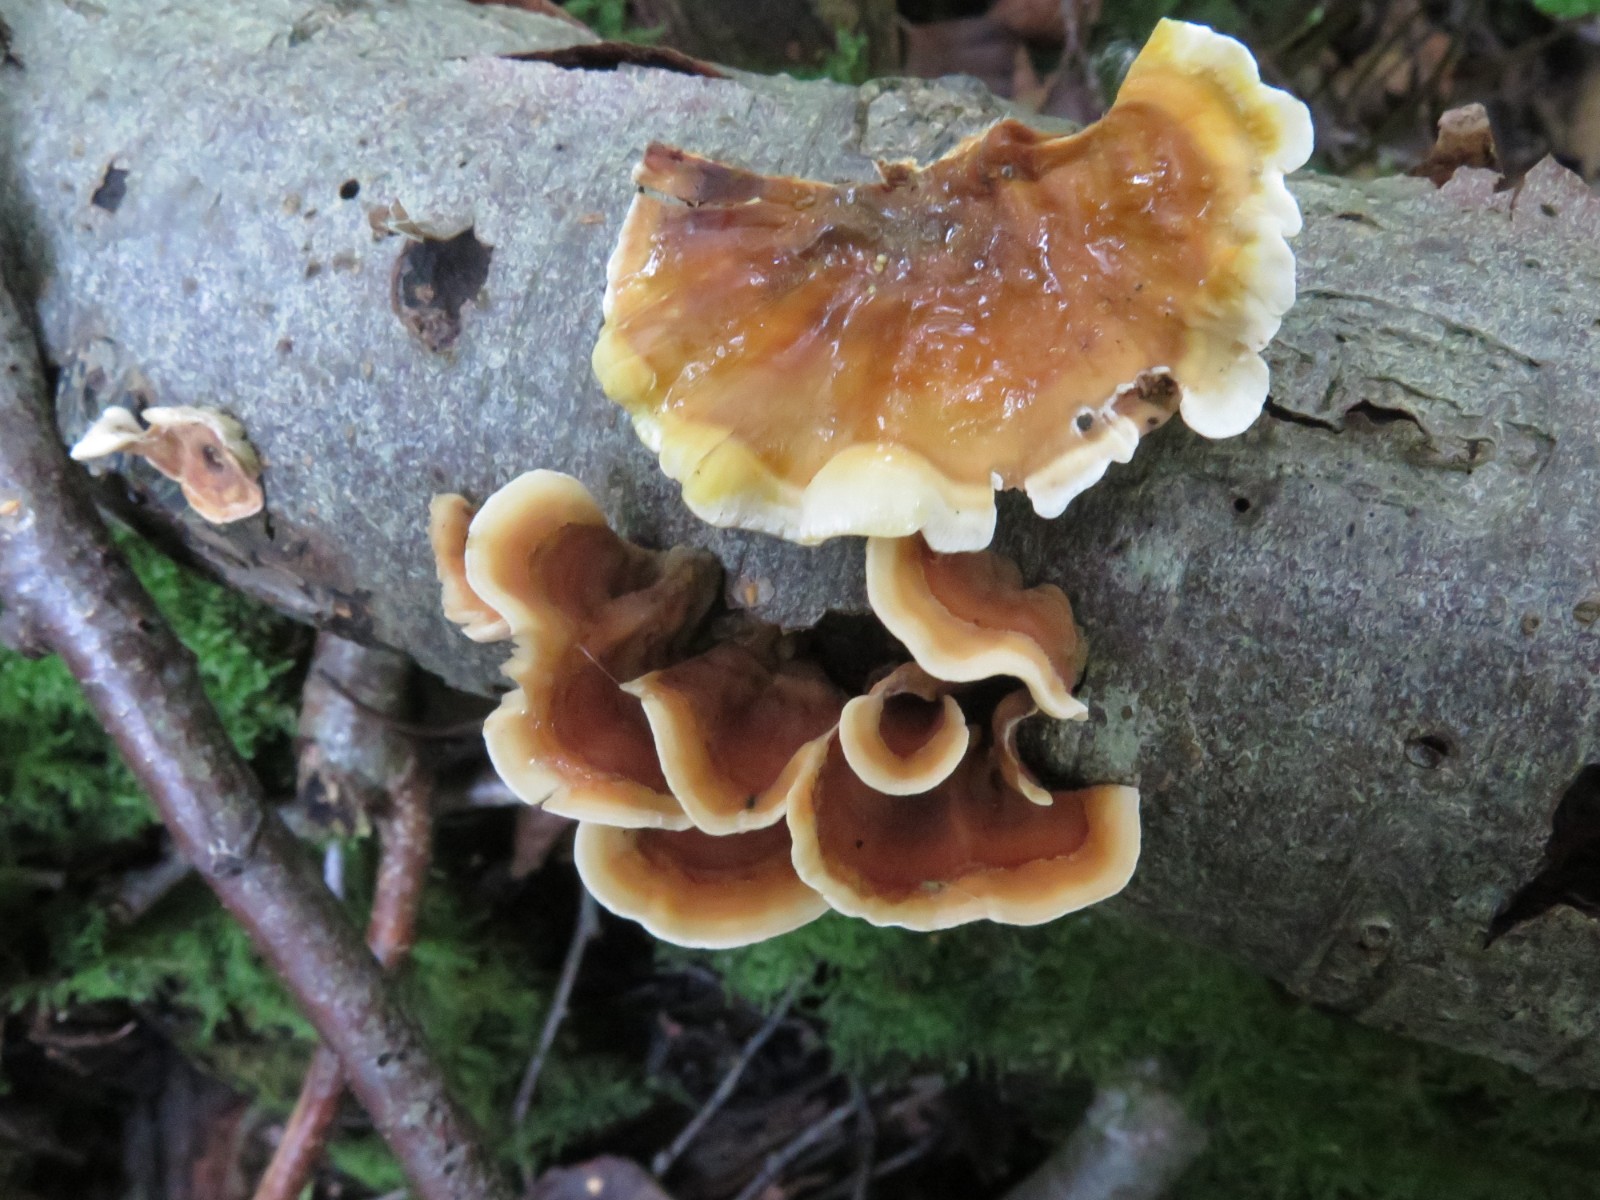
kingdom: Fungi
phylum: Basidiomycota
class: Agaricomycetes
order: Russulales
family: Stereaceae
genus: Stereum
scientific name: Stereum subtomentosum
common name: smuk lædersvamp
